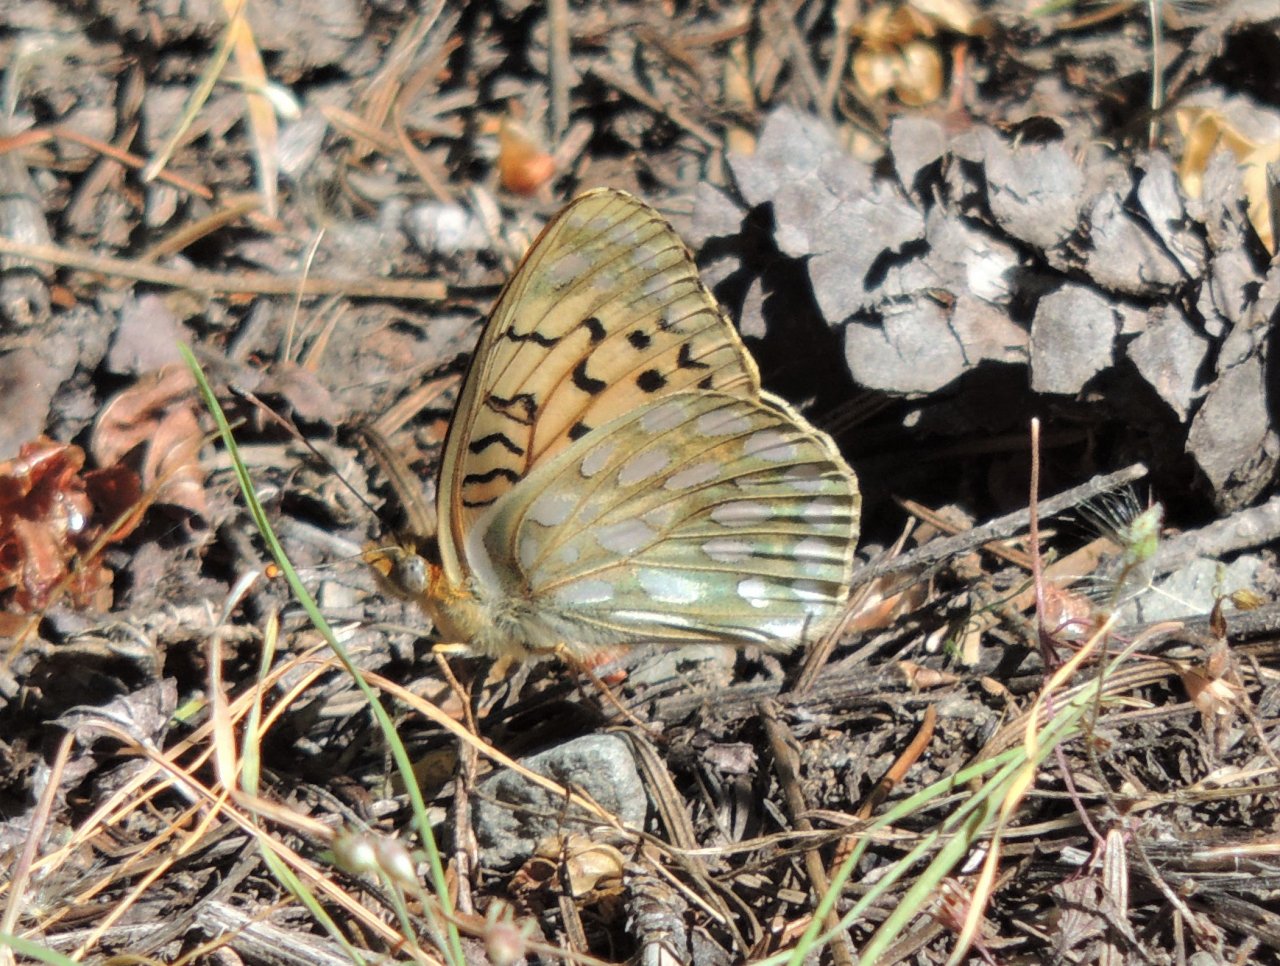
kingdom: Animalia
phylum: Arthropoda
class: Insecta
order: Lepidoptera
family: Nymphalidae
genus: Speyeria
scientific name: Speyeria callippe
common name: Callippe Fritillary
